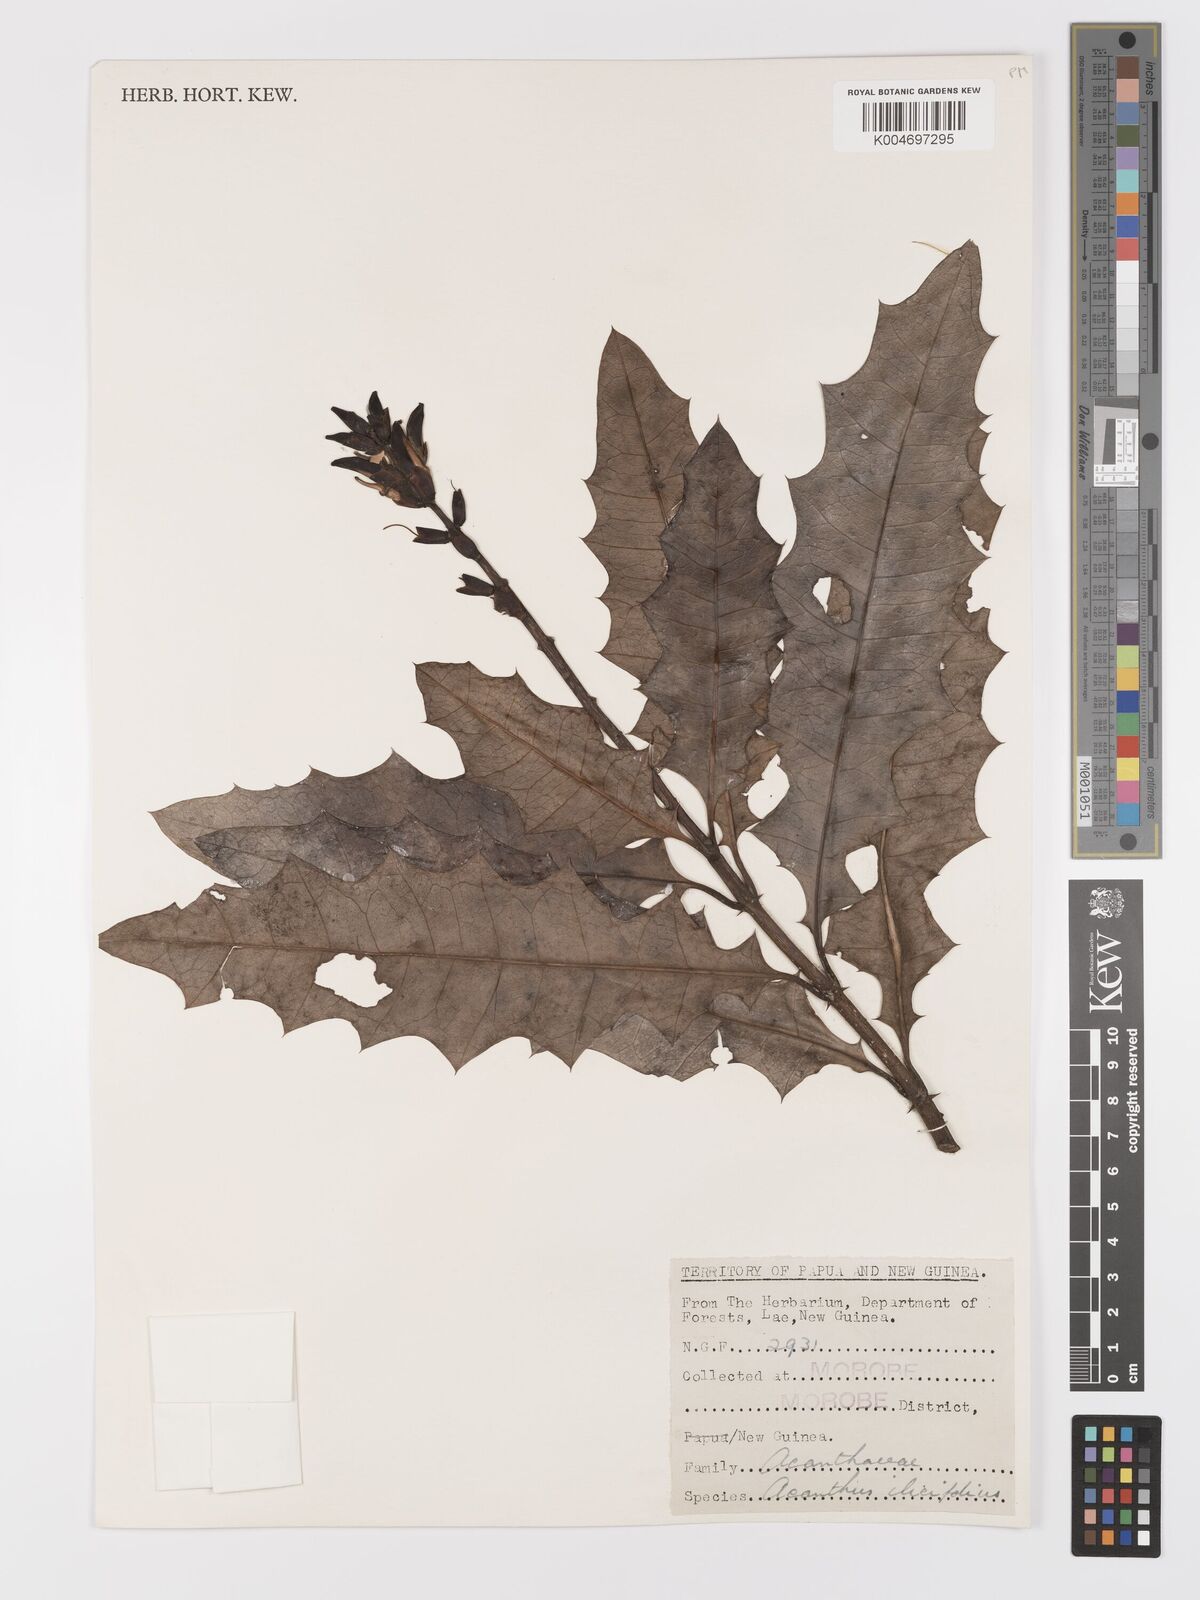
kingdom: Plantae
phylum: Tracheophyta
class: Magnoliopsida
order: Lamiales
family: Acanthaceae
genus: Acanthus
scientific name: Acanthus ilicifolius
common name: Holy mangrove
